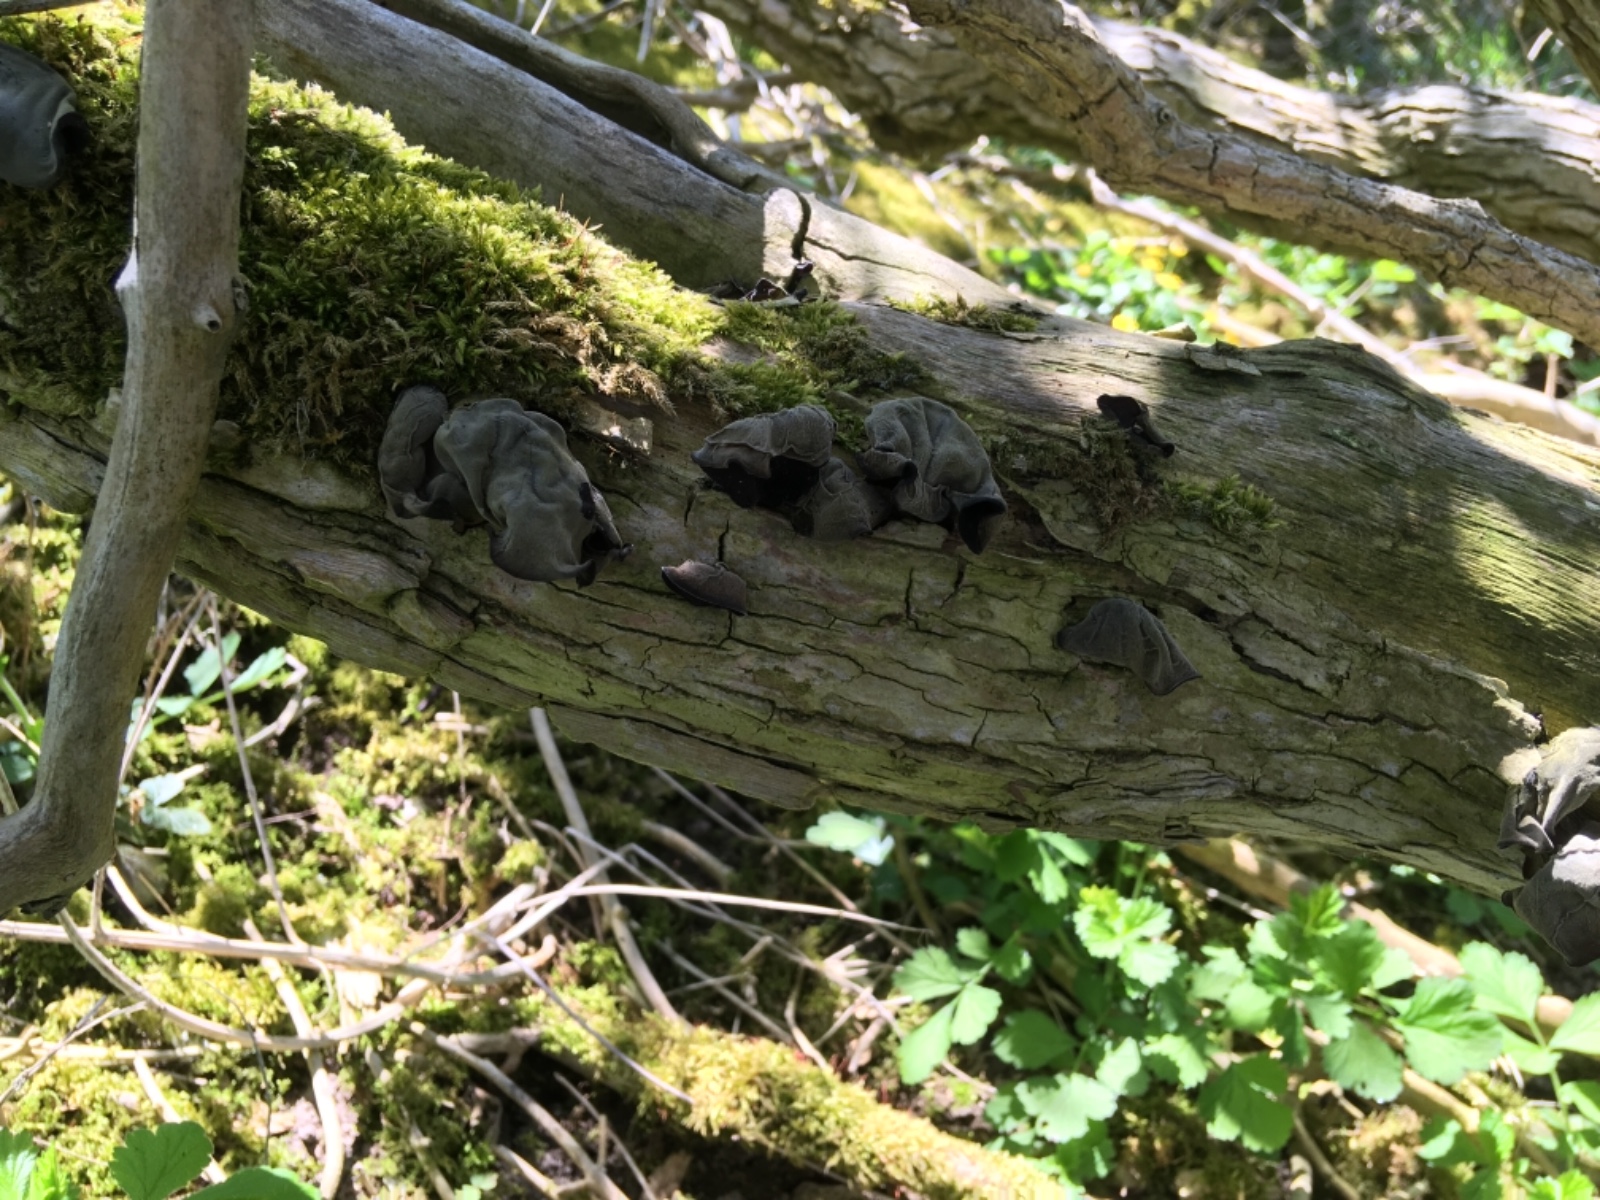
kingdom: Fungi
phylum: Basidiomycota
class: Agaricomycetes
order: Auriculariales
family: Auriculariaceae
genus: Auricularia
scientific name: Auricularia auricula-judae
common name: almindelig judasøre
